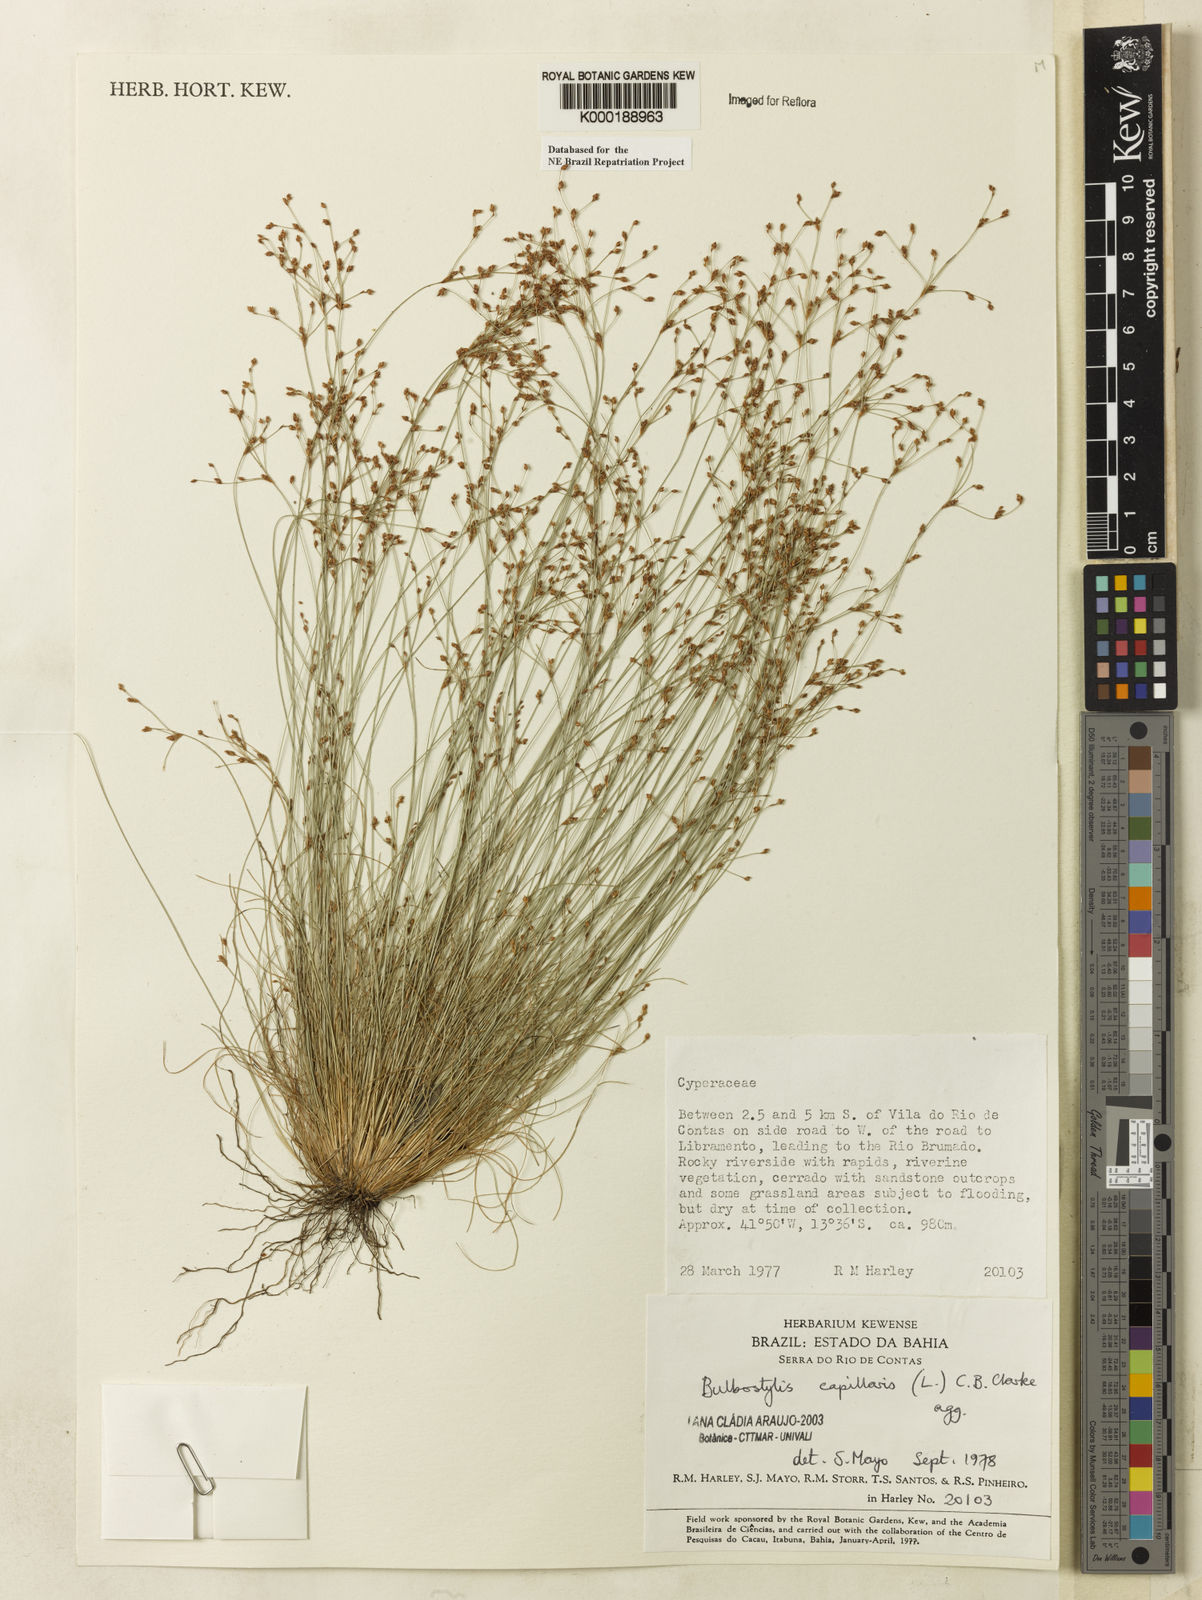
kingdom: Plantae
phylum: Tracheophyta
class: Liliopsida
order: Poales
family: Cyperaceae
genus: Bulbostylis
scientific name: Bulbostylis capillaris
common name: Densetuft hairsedge
